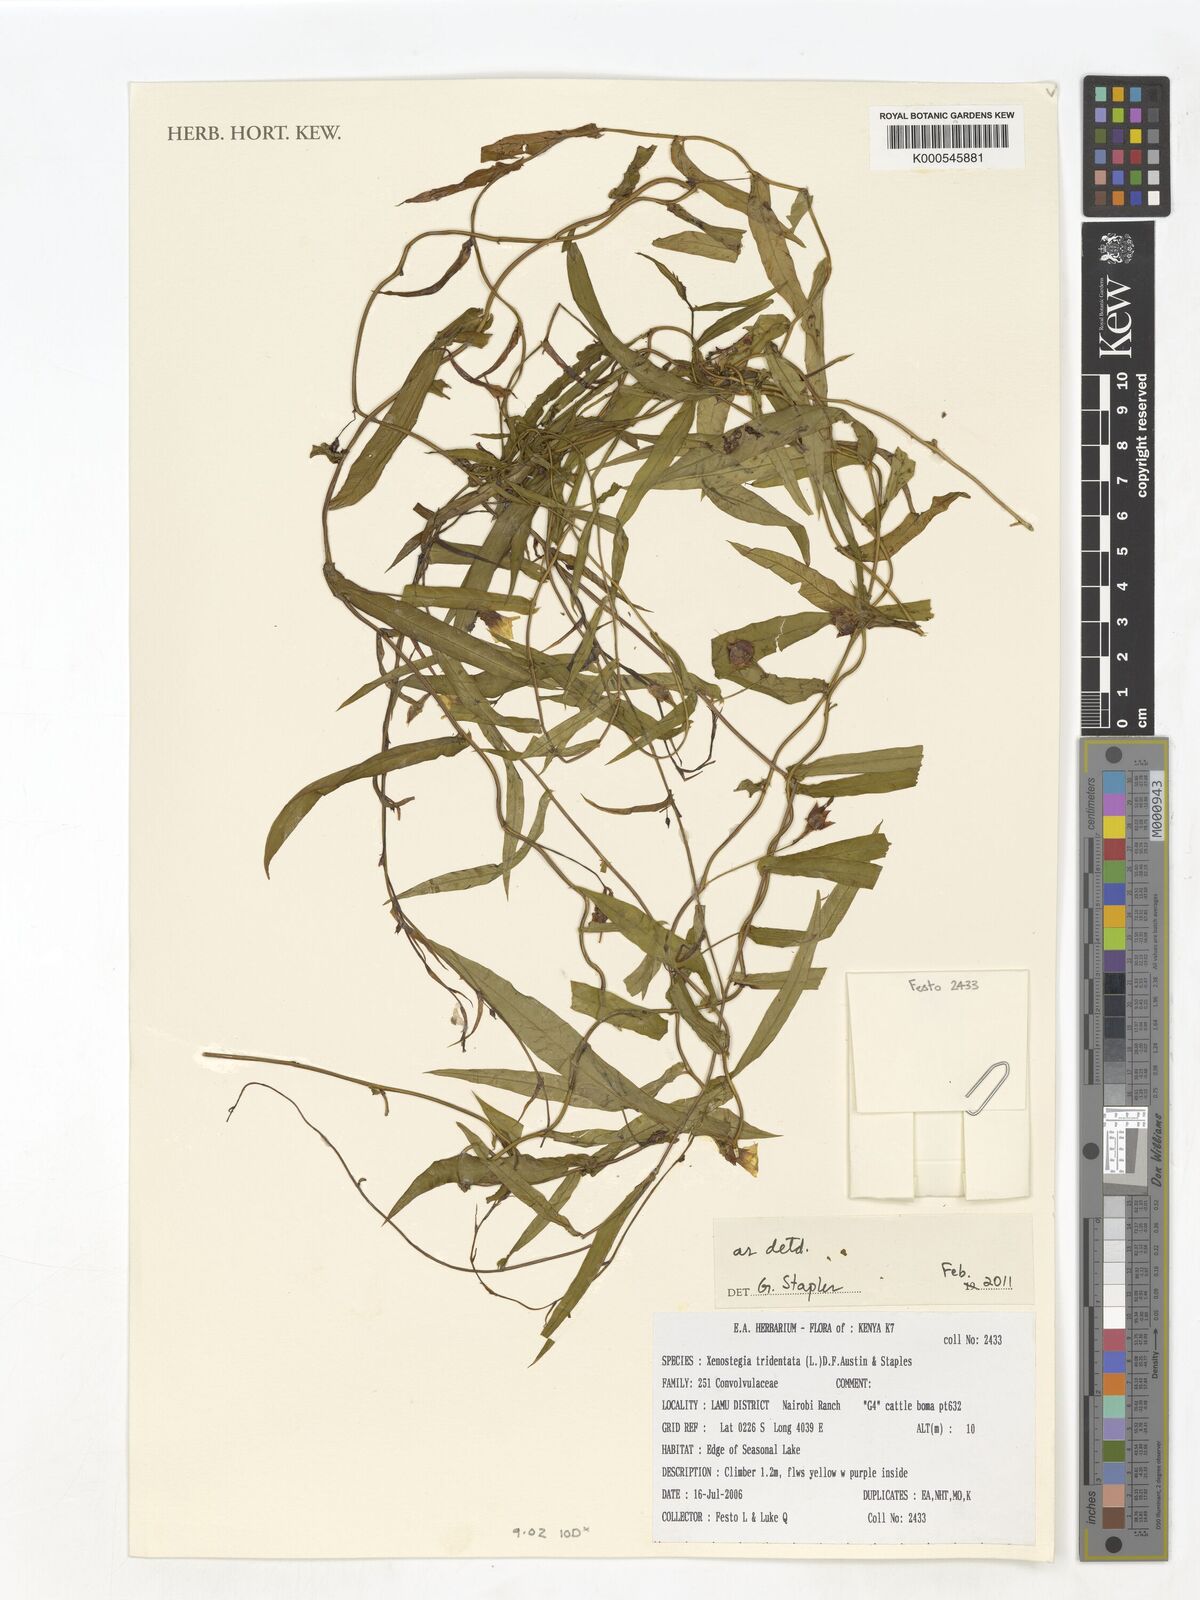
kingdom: Plantae
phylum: Tracheophyta
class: Magnoliopsida
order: Solanales
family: Convolvulaceae
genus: Xenostegia
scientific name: Xenostegia tridentata
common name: African morningvine
